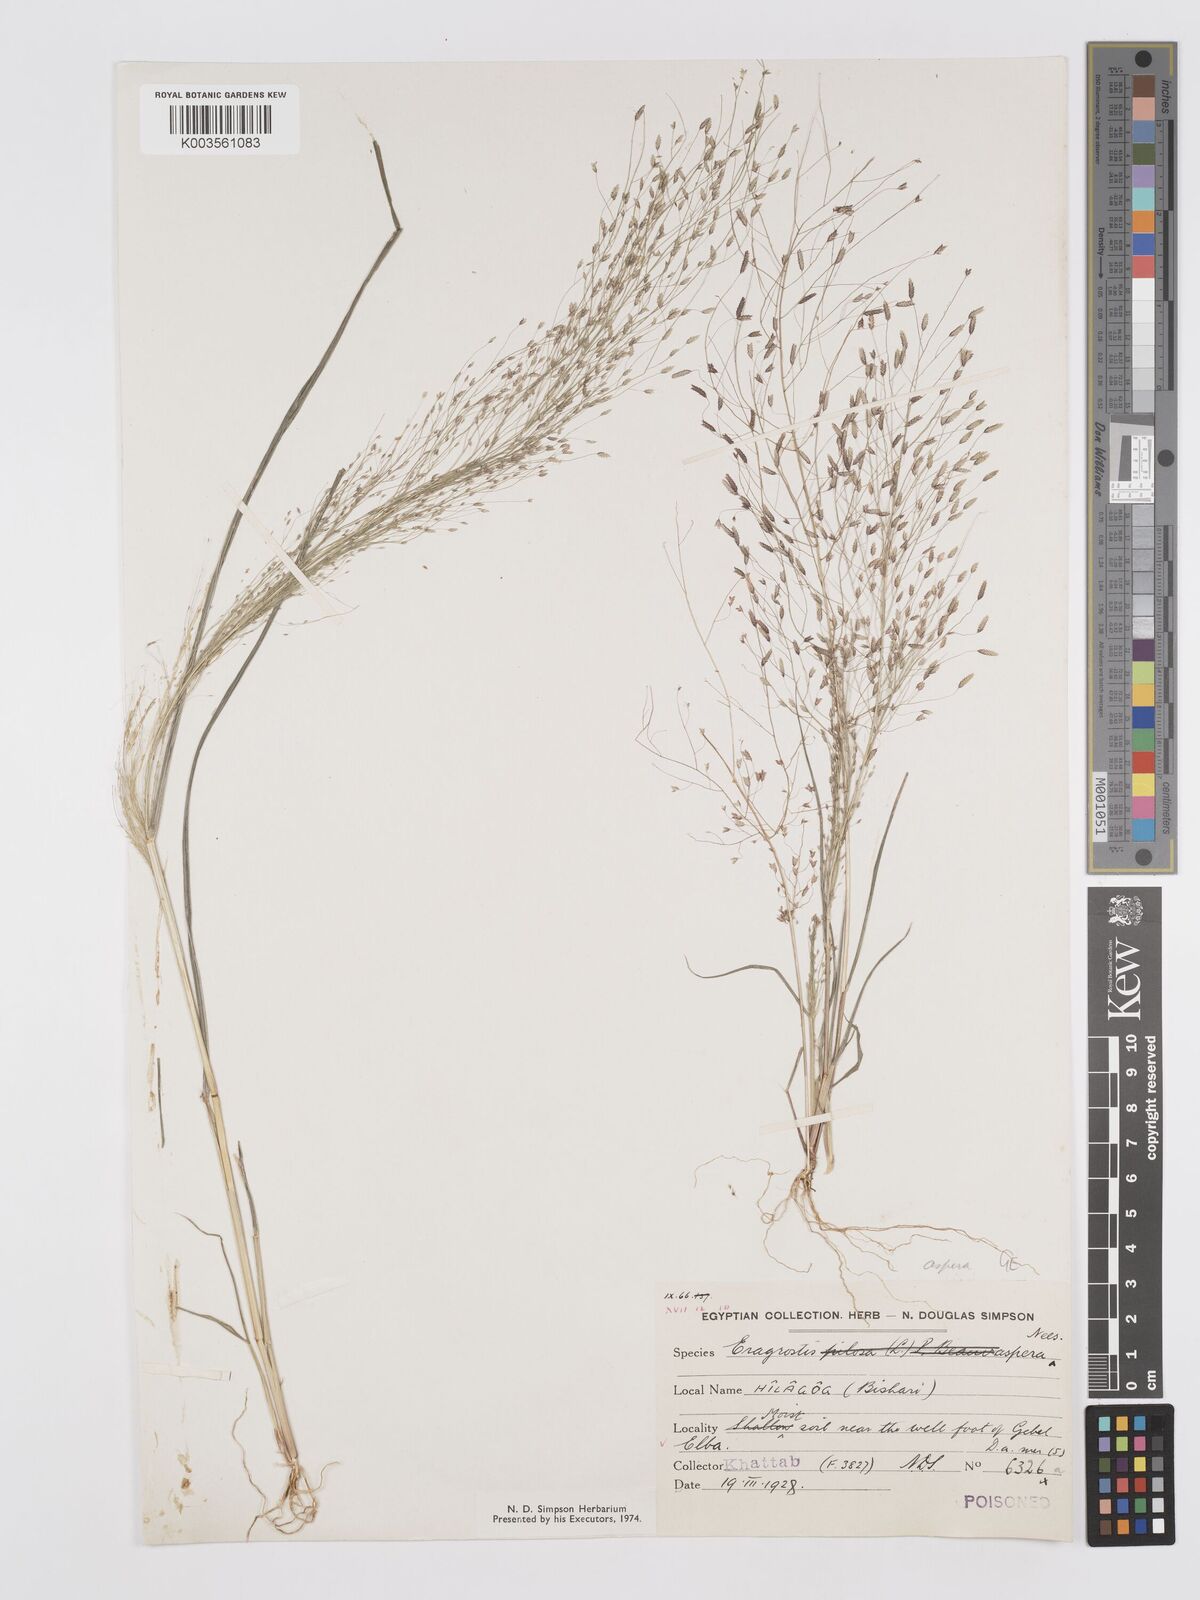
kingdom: Plantae
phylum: Tracheophyta
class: Liliopsida
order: Poales
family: Poaceae
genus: Eragrostis
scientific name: Eragrostis aspera
